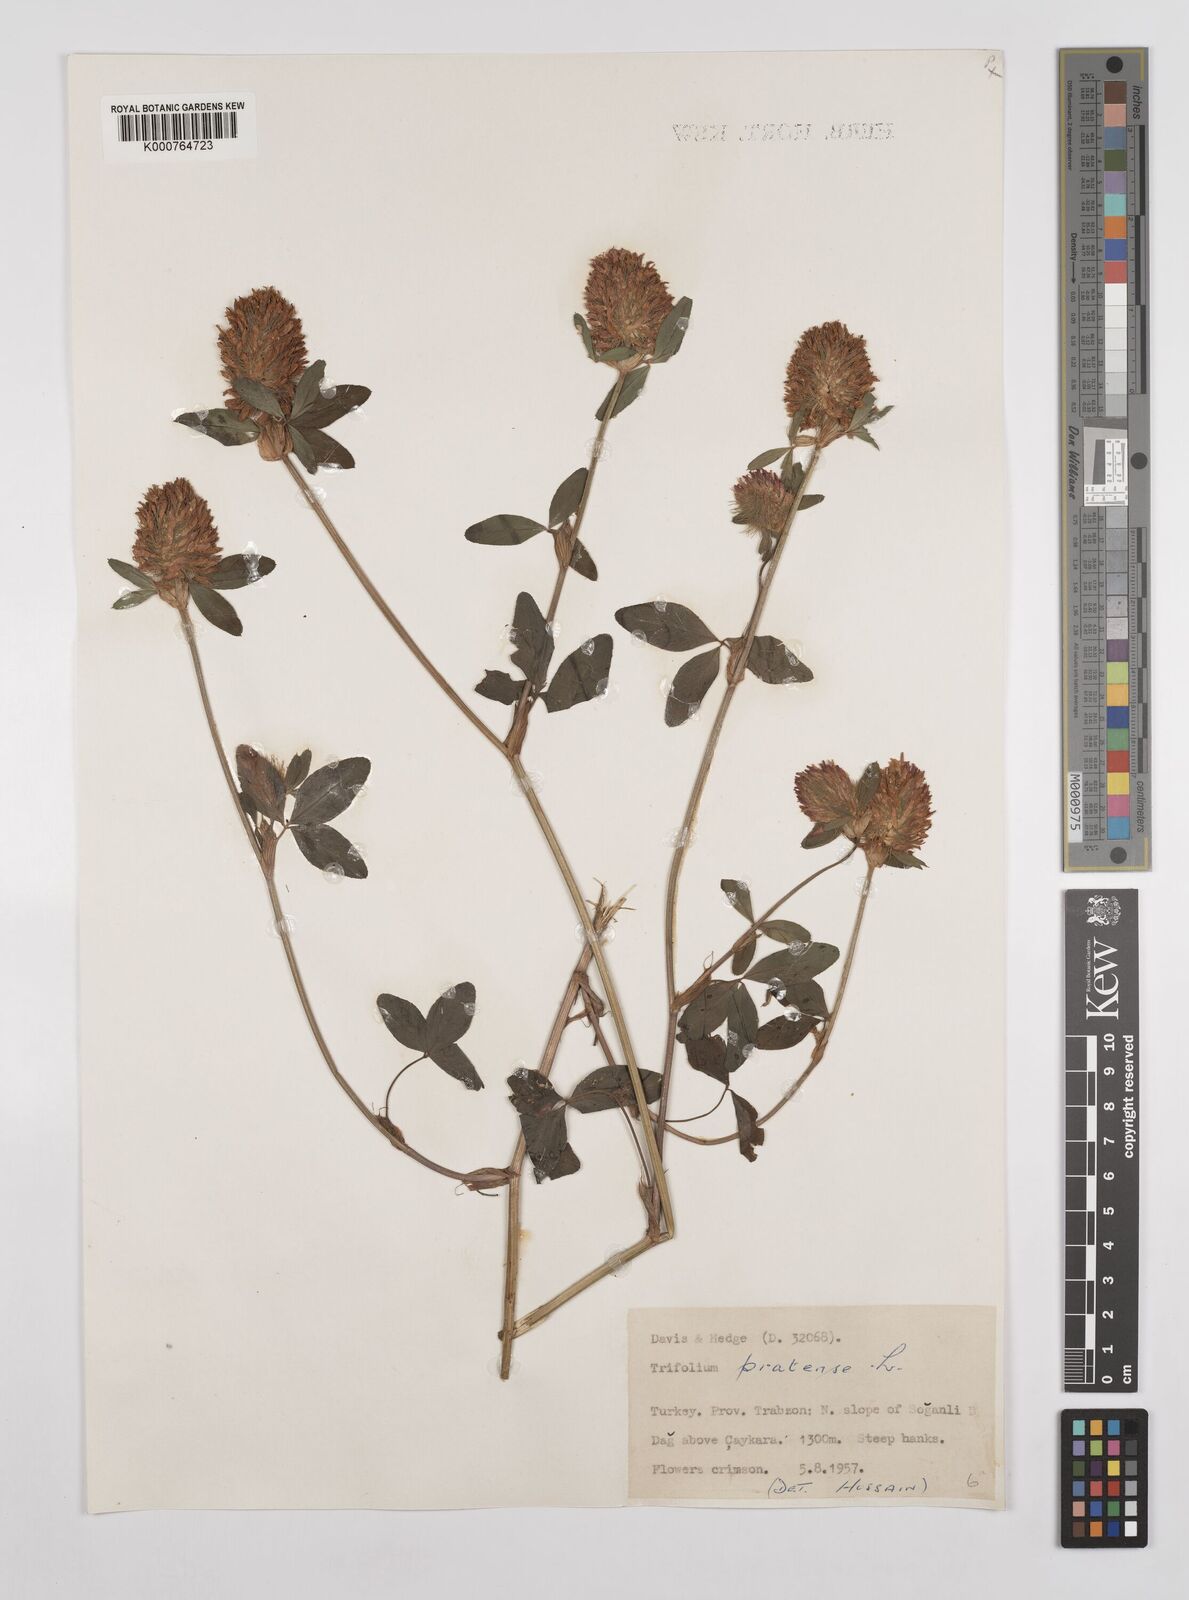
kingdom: Plantae
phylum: Tracheophyta
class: Magnoliopsida
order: Fabales
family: Fabaceae
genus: Trifolium
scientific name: Trifolium pratense
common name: Red clover
